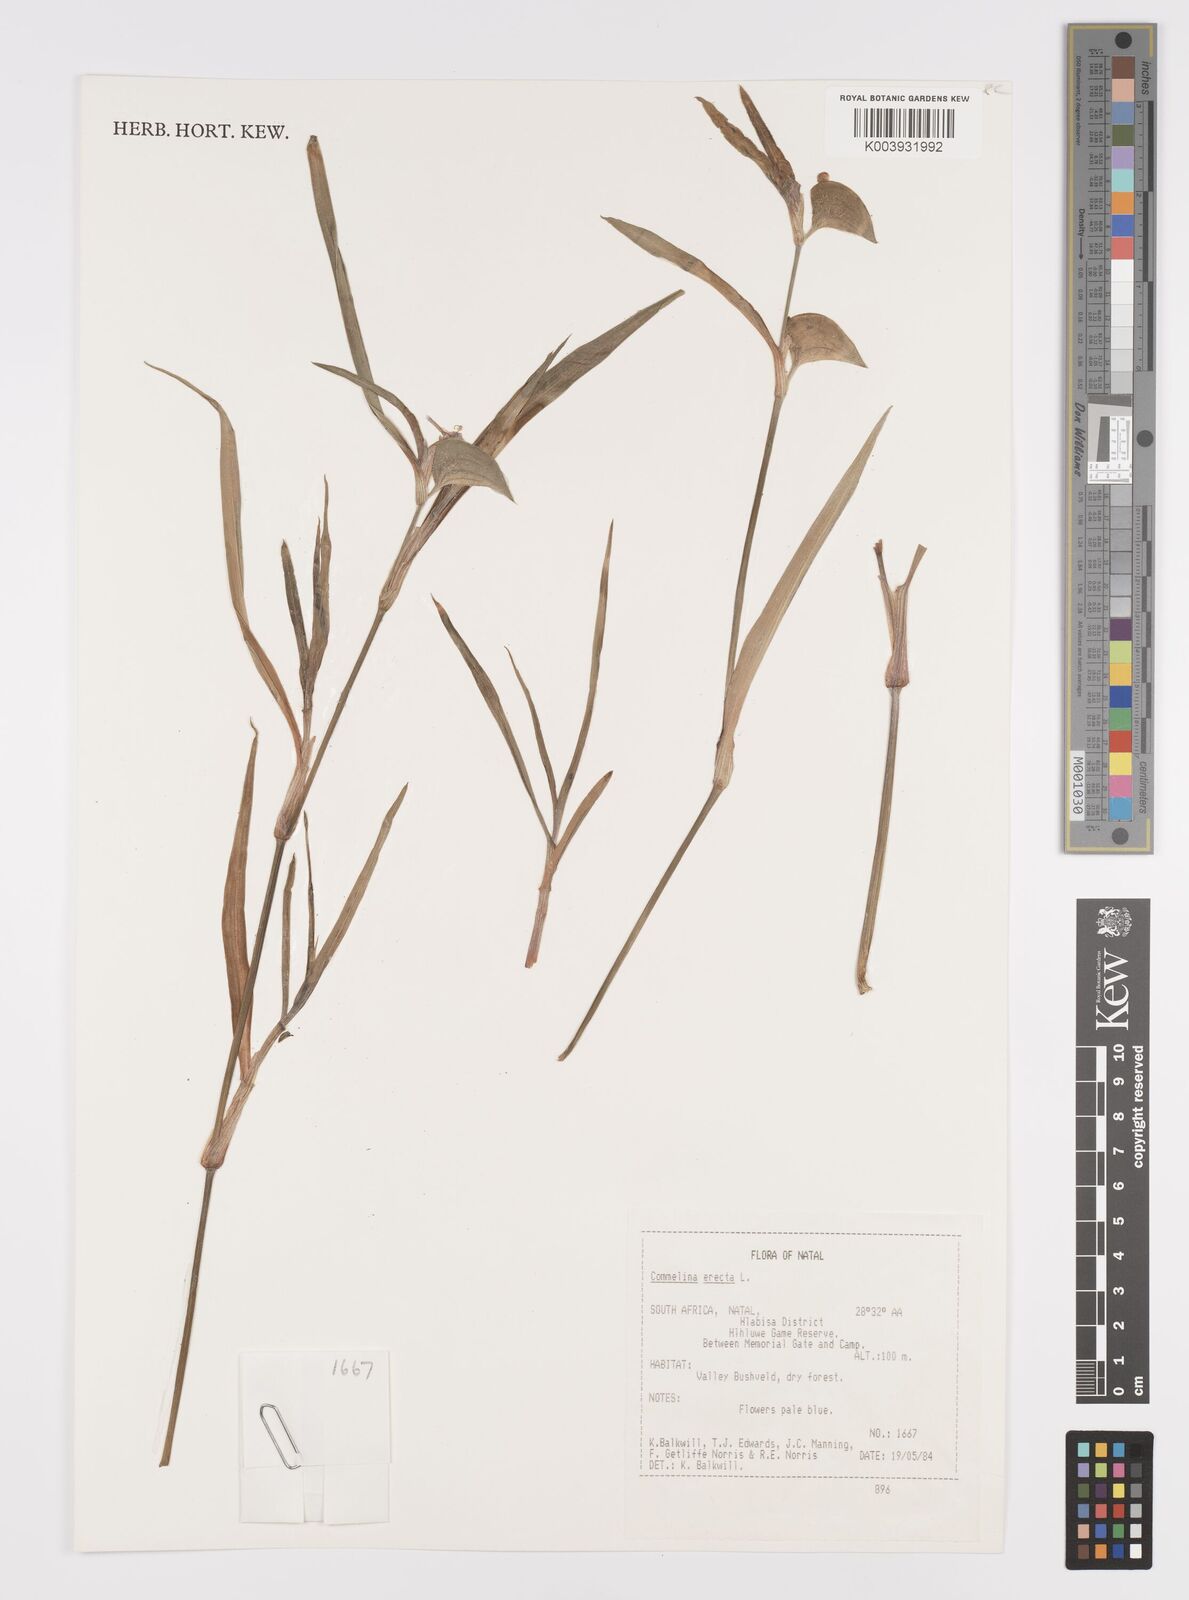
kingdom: Plantae
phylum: Tracheophyta
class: Liliopsida
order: Commelinales
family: Commelinaceae
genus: Commelina
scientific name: Commelina erecta
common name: Blousel blommetjie
